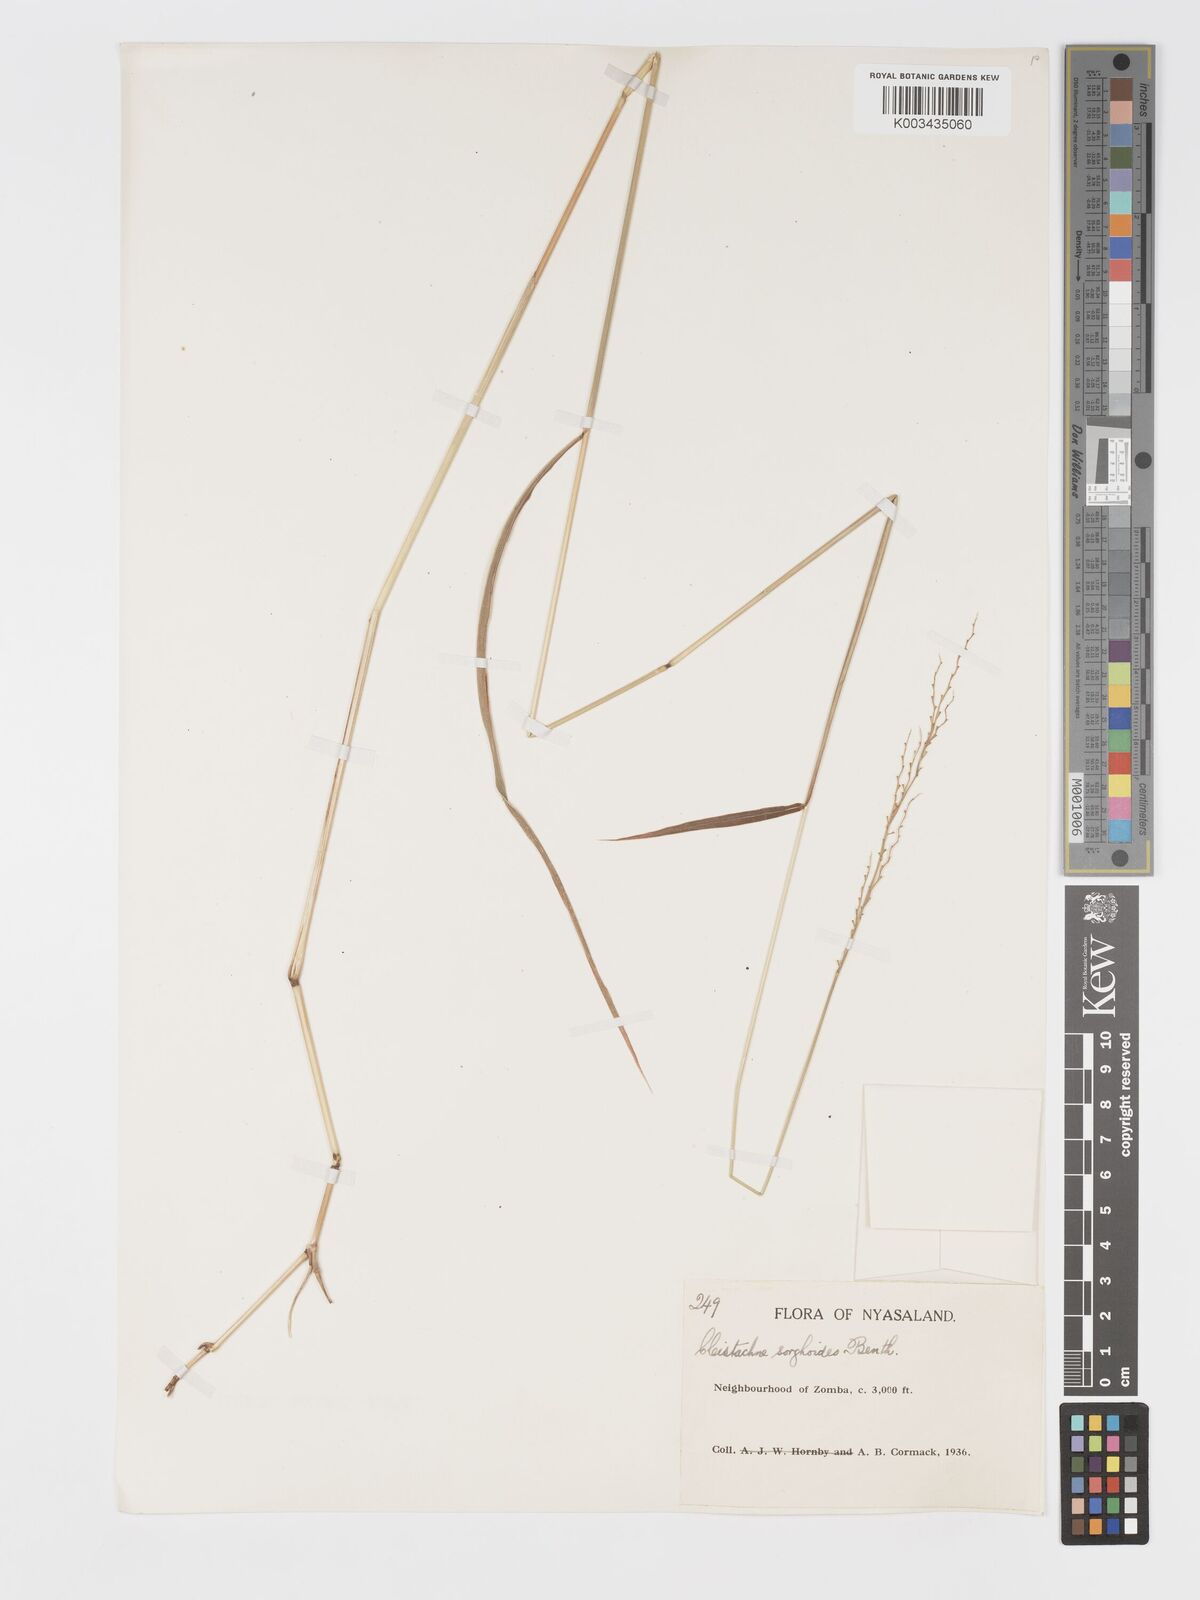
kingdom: Plantae
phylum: Tracheophyta
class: Liliopsida
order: Poales
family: Poaceae
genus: Cleistachne
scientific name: Cleistachne sorghoides
